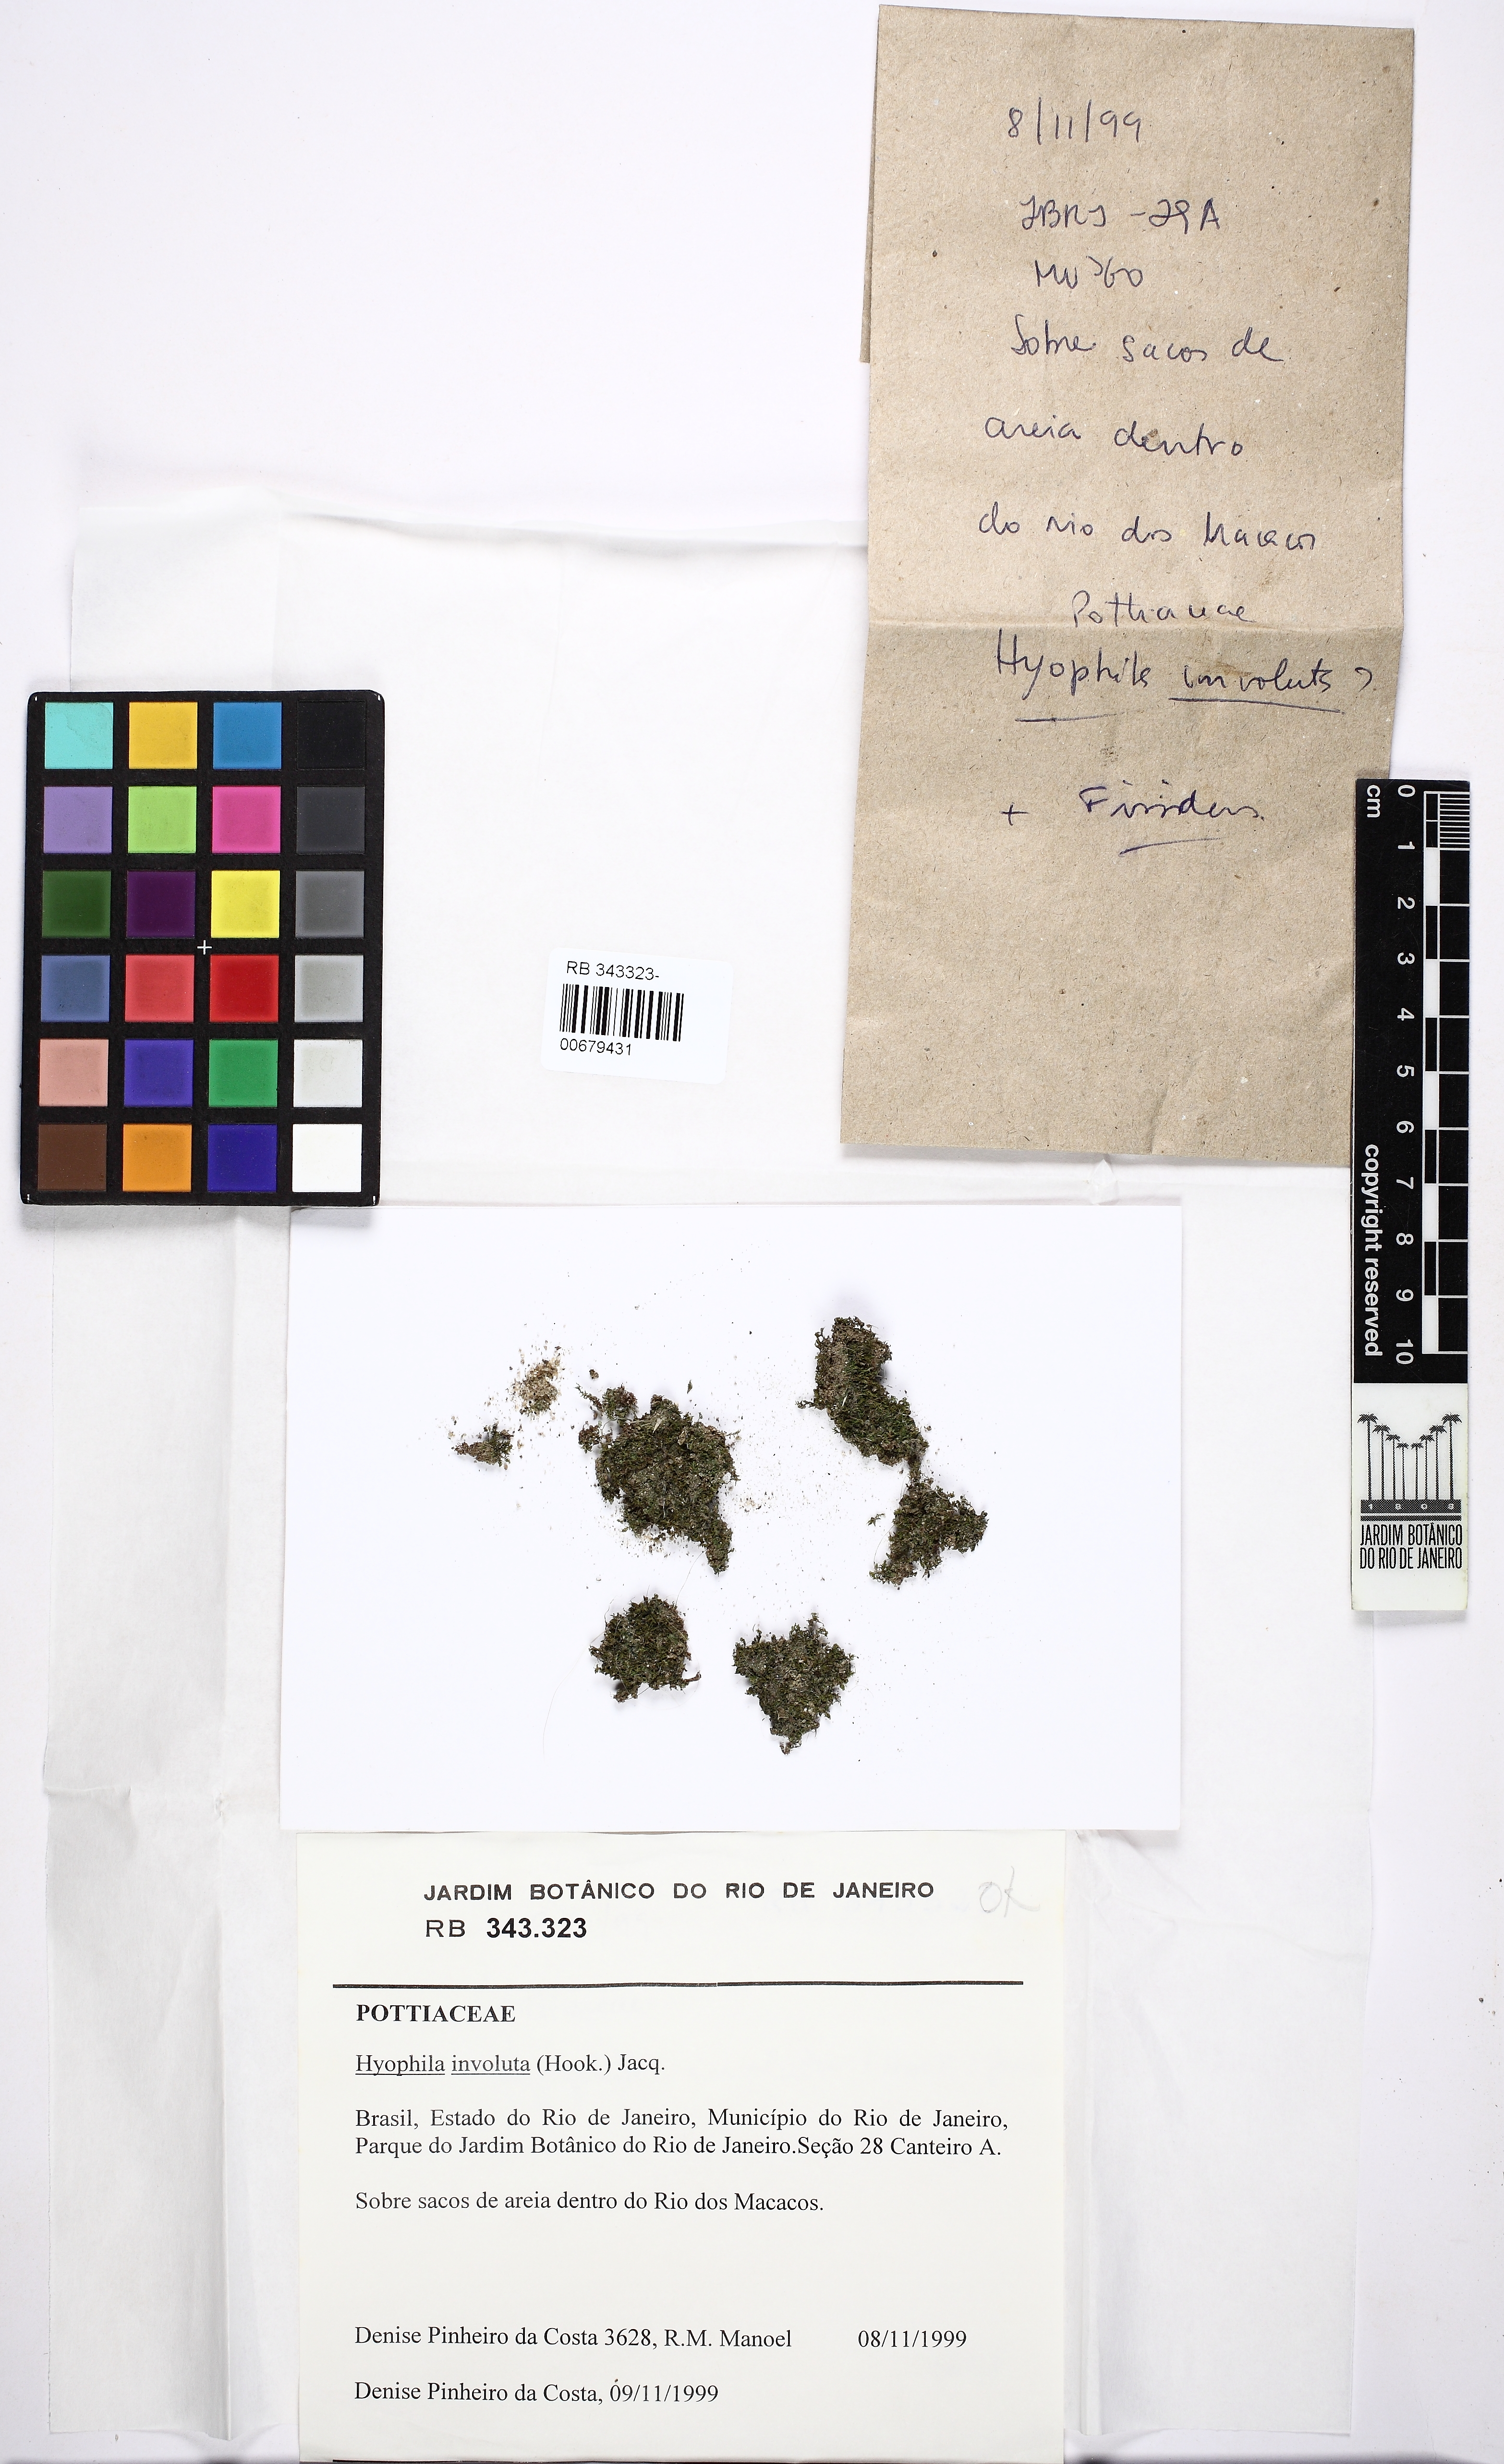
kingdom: Plantae
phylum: Bryophyta
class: Bryopsida
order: Pottiales
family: Pottiaceae
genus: Hyophila
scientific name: Hyophila involuta
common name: Hyophila moss
